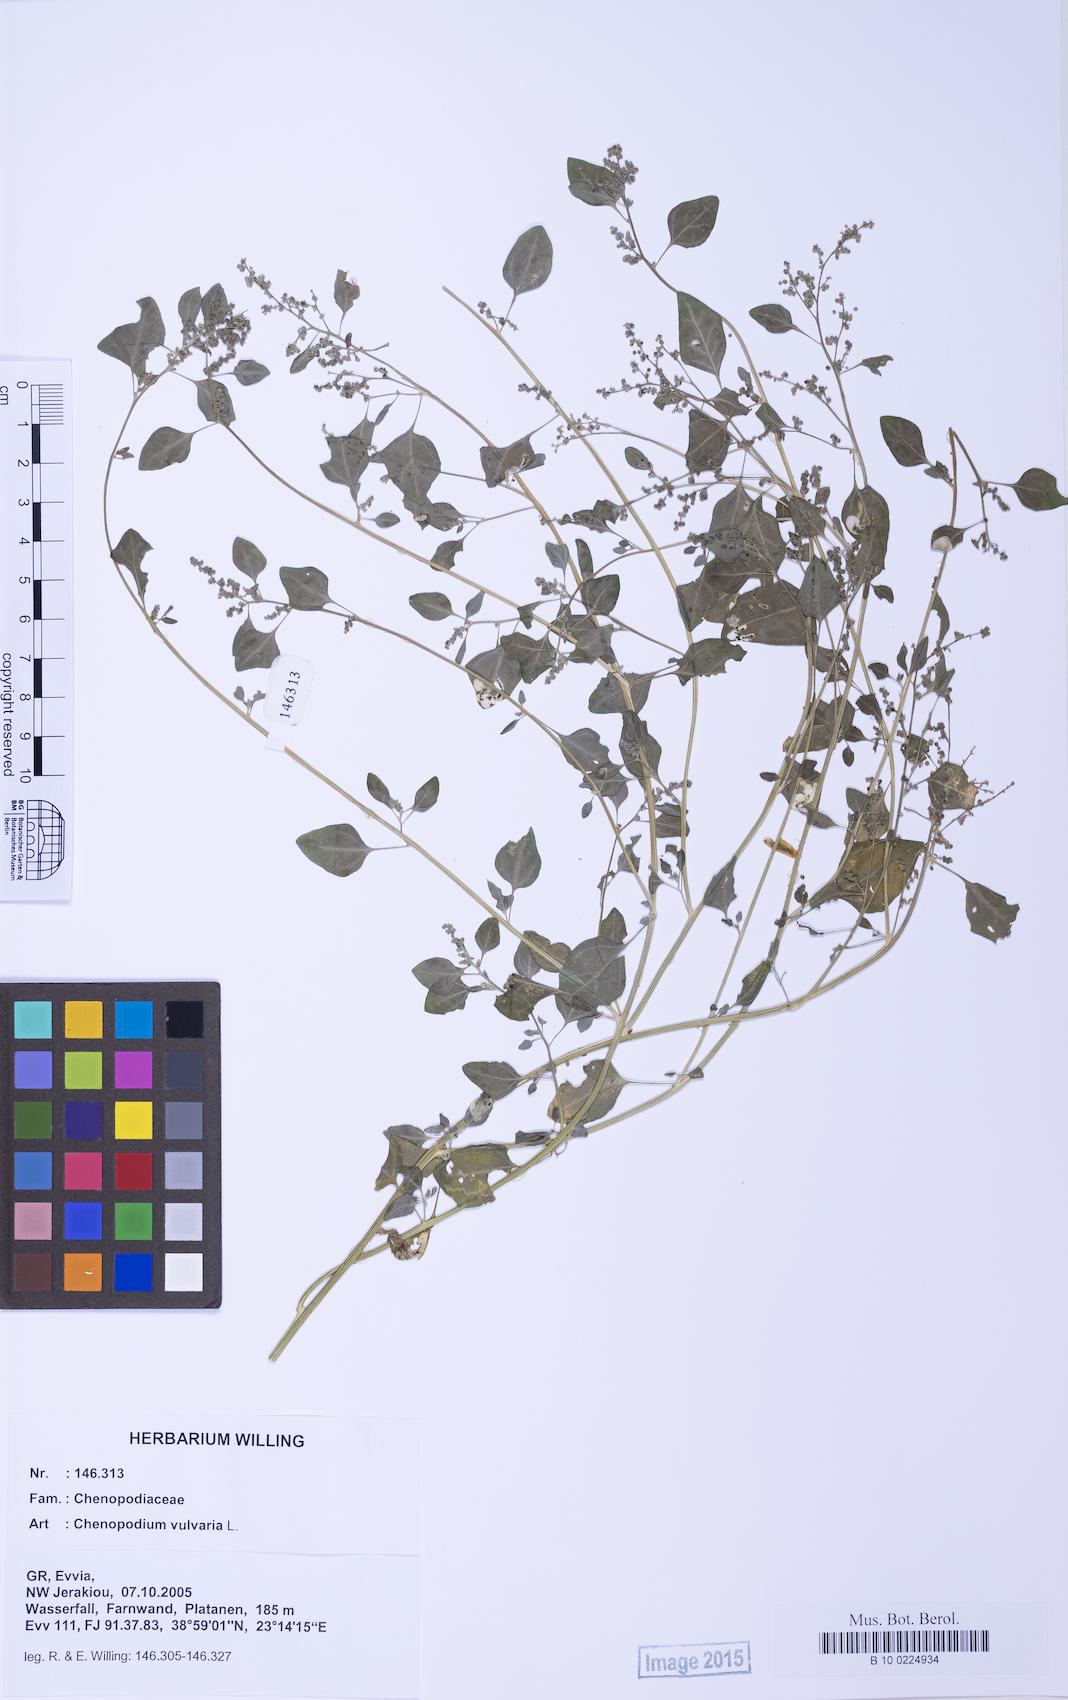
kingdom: Plantae
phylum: Tracheophyta
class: Magnoliopsida
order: Caryophyllales
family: Amaranthaceae
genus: Chenopodium
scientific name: Chenopodium vulvaria
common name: Stinking goosefoot
